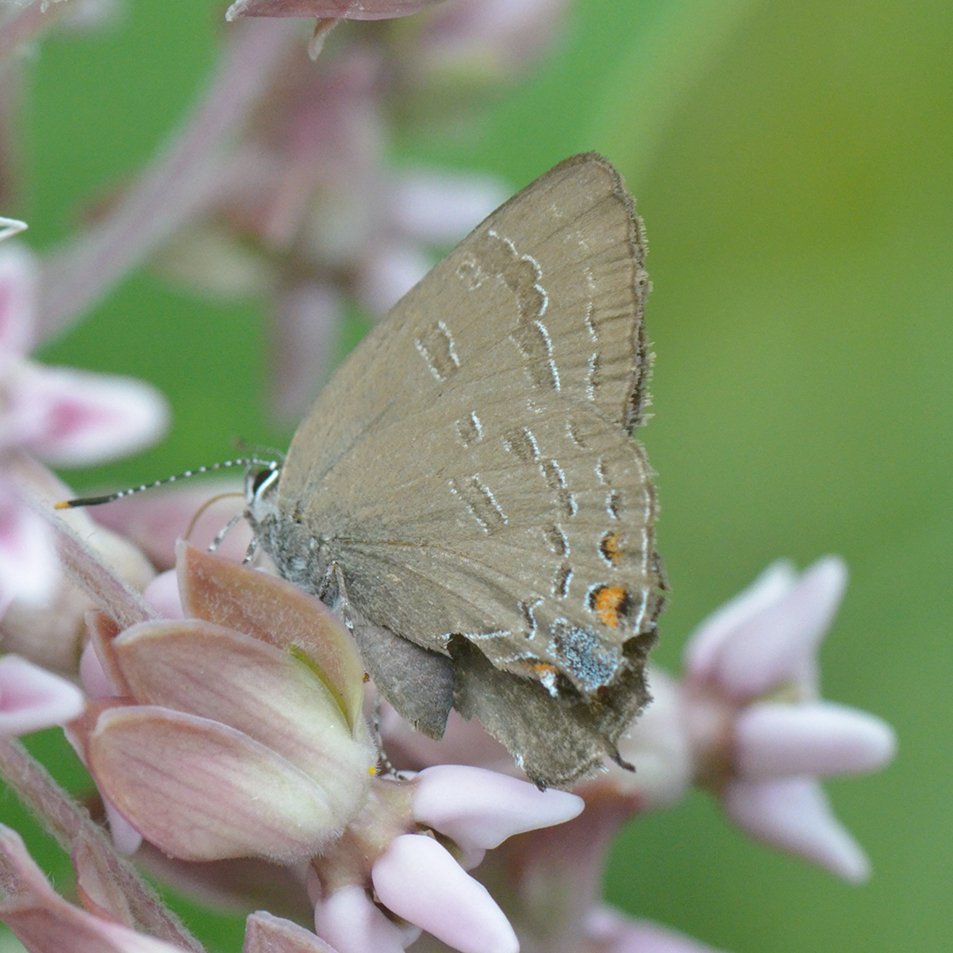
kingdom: Animalia
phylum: Arthropoda
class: Insecta
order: Lepidoptera
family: Lycaenidae
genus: Satyrium
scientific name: Satyrium calanus
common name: Banded Hairstreak
